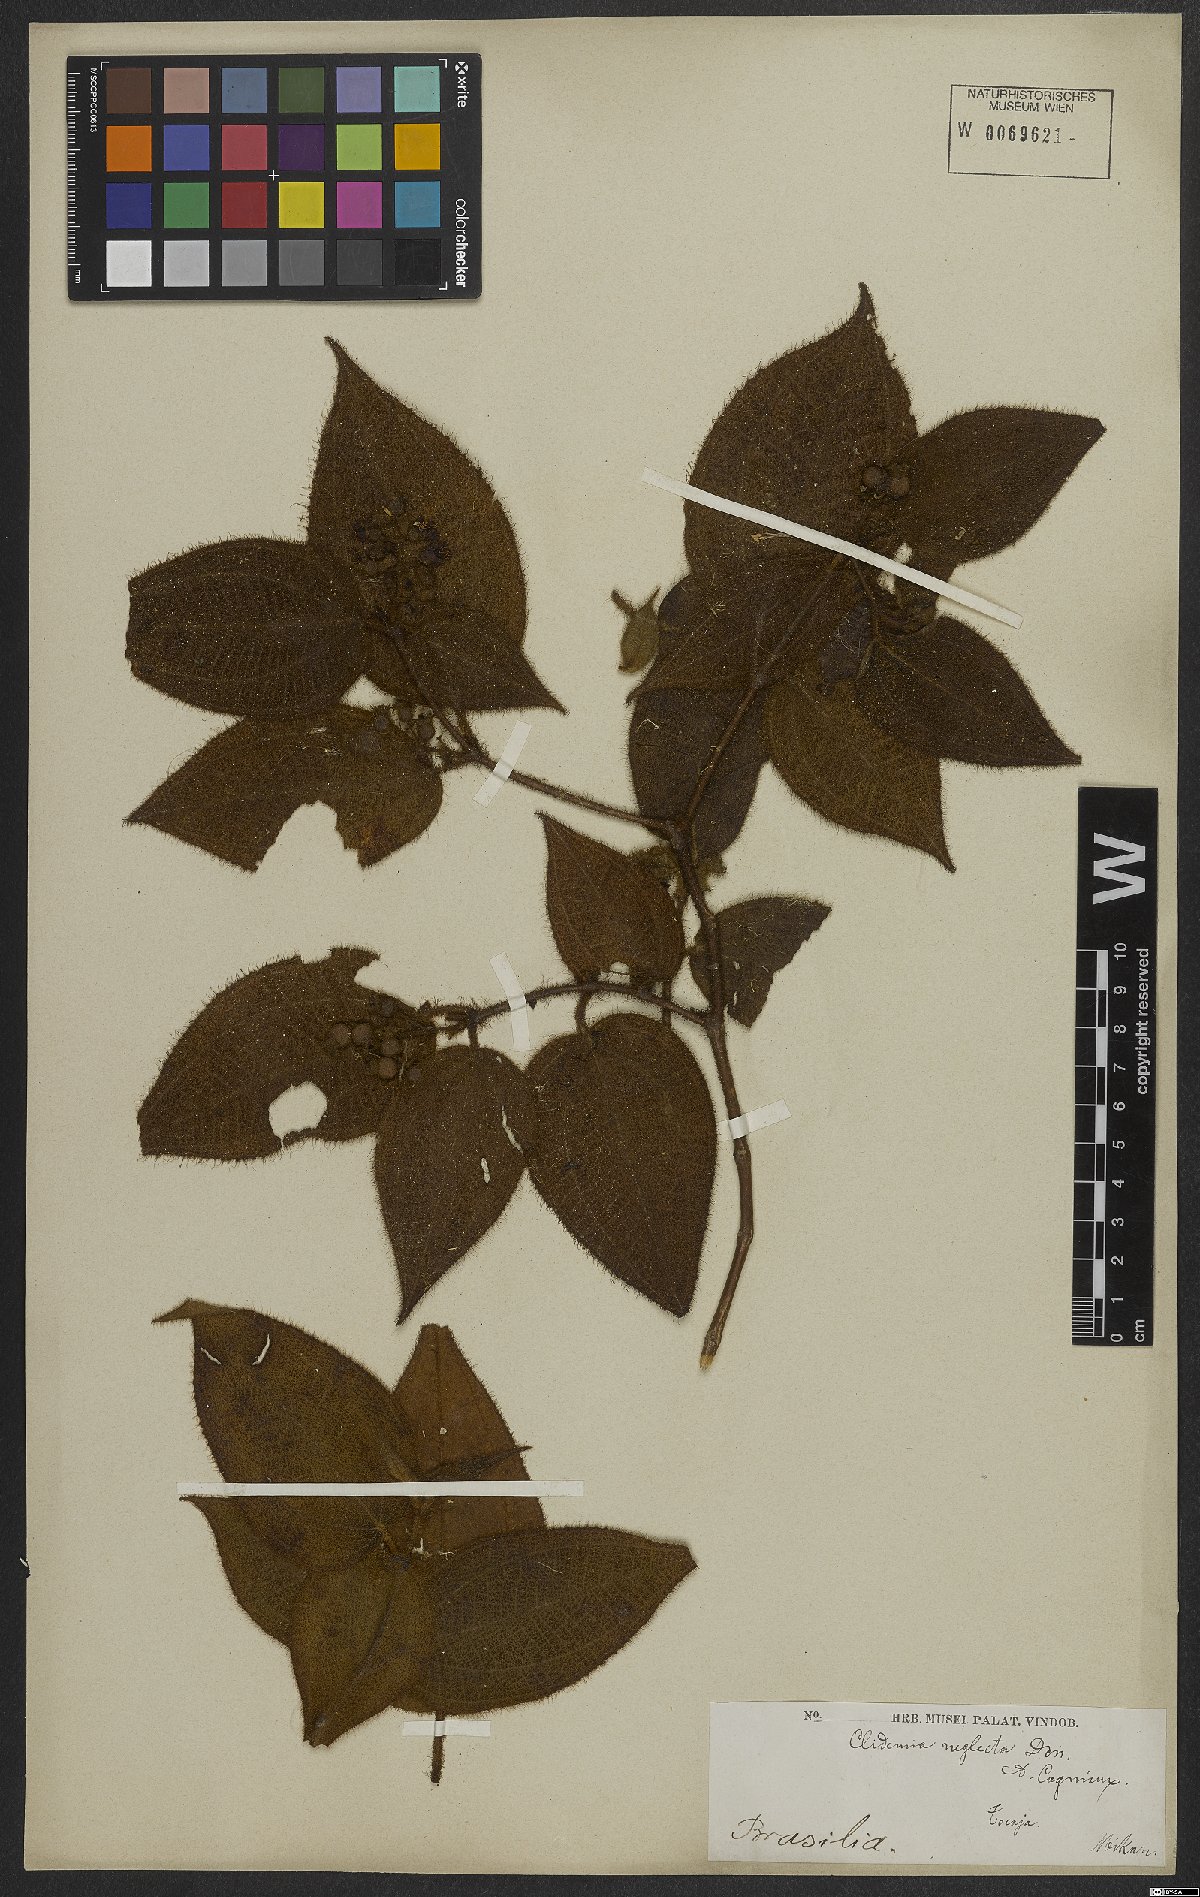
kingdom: Plantae
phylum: Tracheophyta
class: Magnoliopsida
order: Myrtales
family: Melastomataceae
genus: Miconia
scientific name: Miconia dependens
